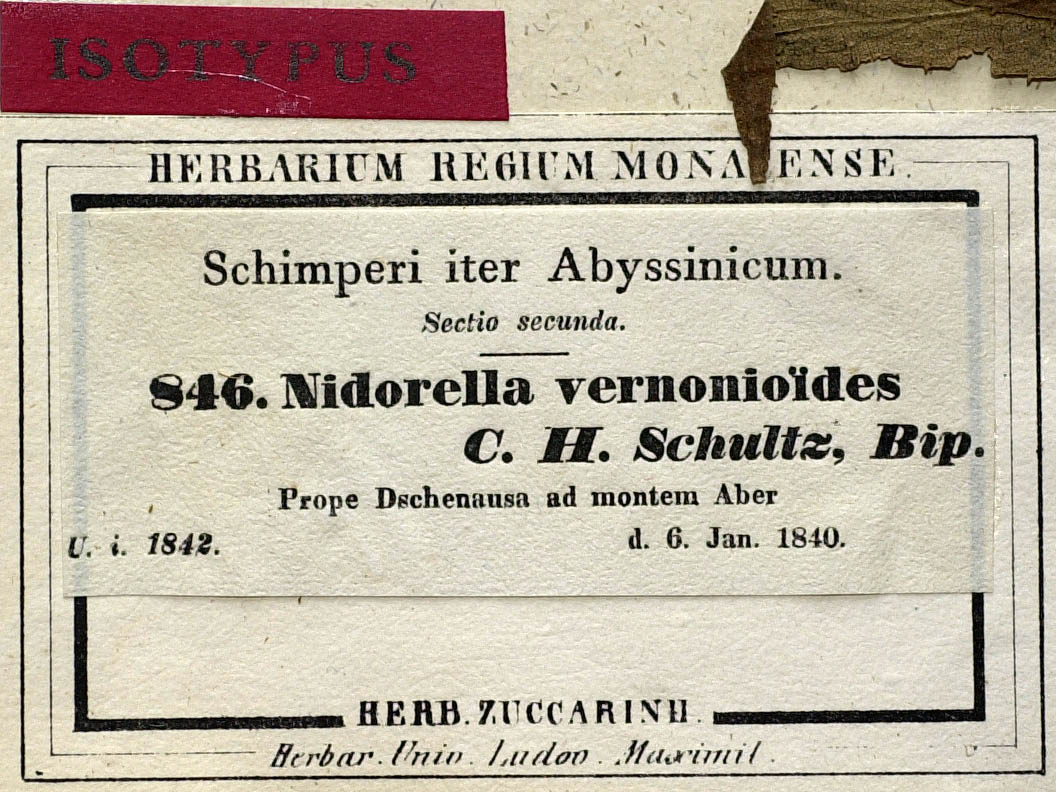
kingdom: Plantae
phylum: Tracheophyta
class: Magnoliopsida
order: Asterales
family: Asteraceae
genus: Nidorella
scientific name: Nidorella vernonioides
